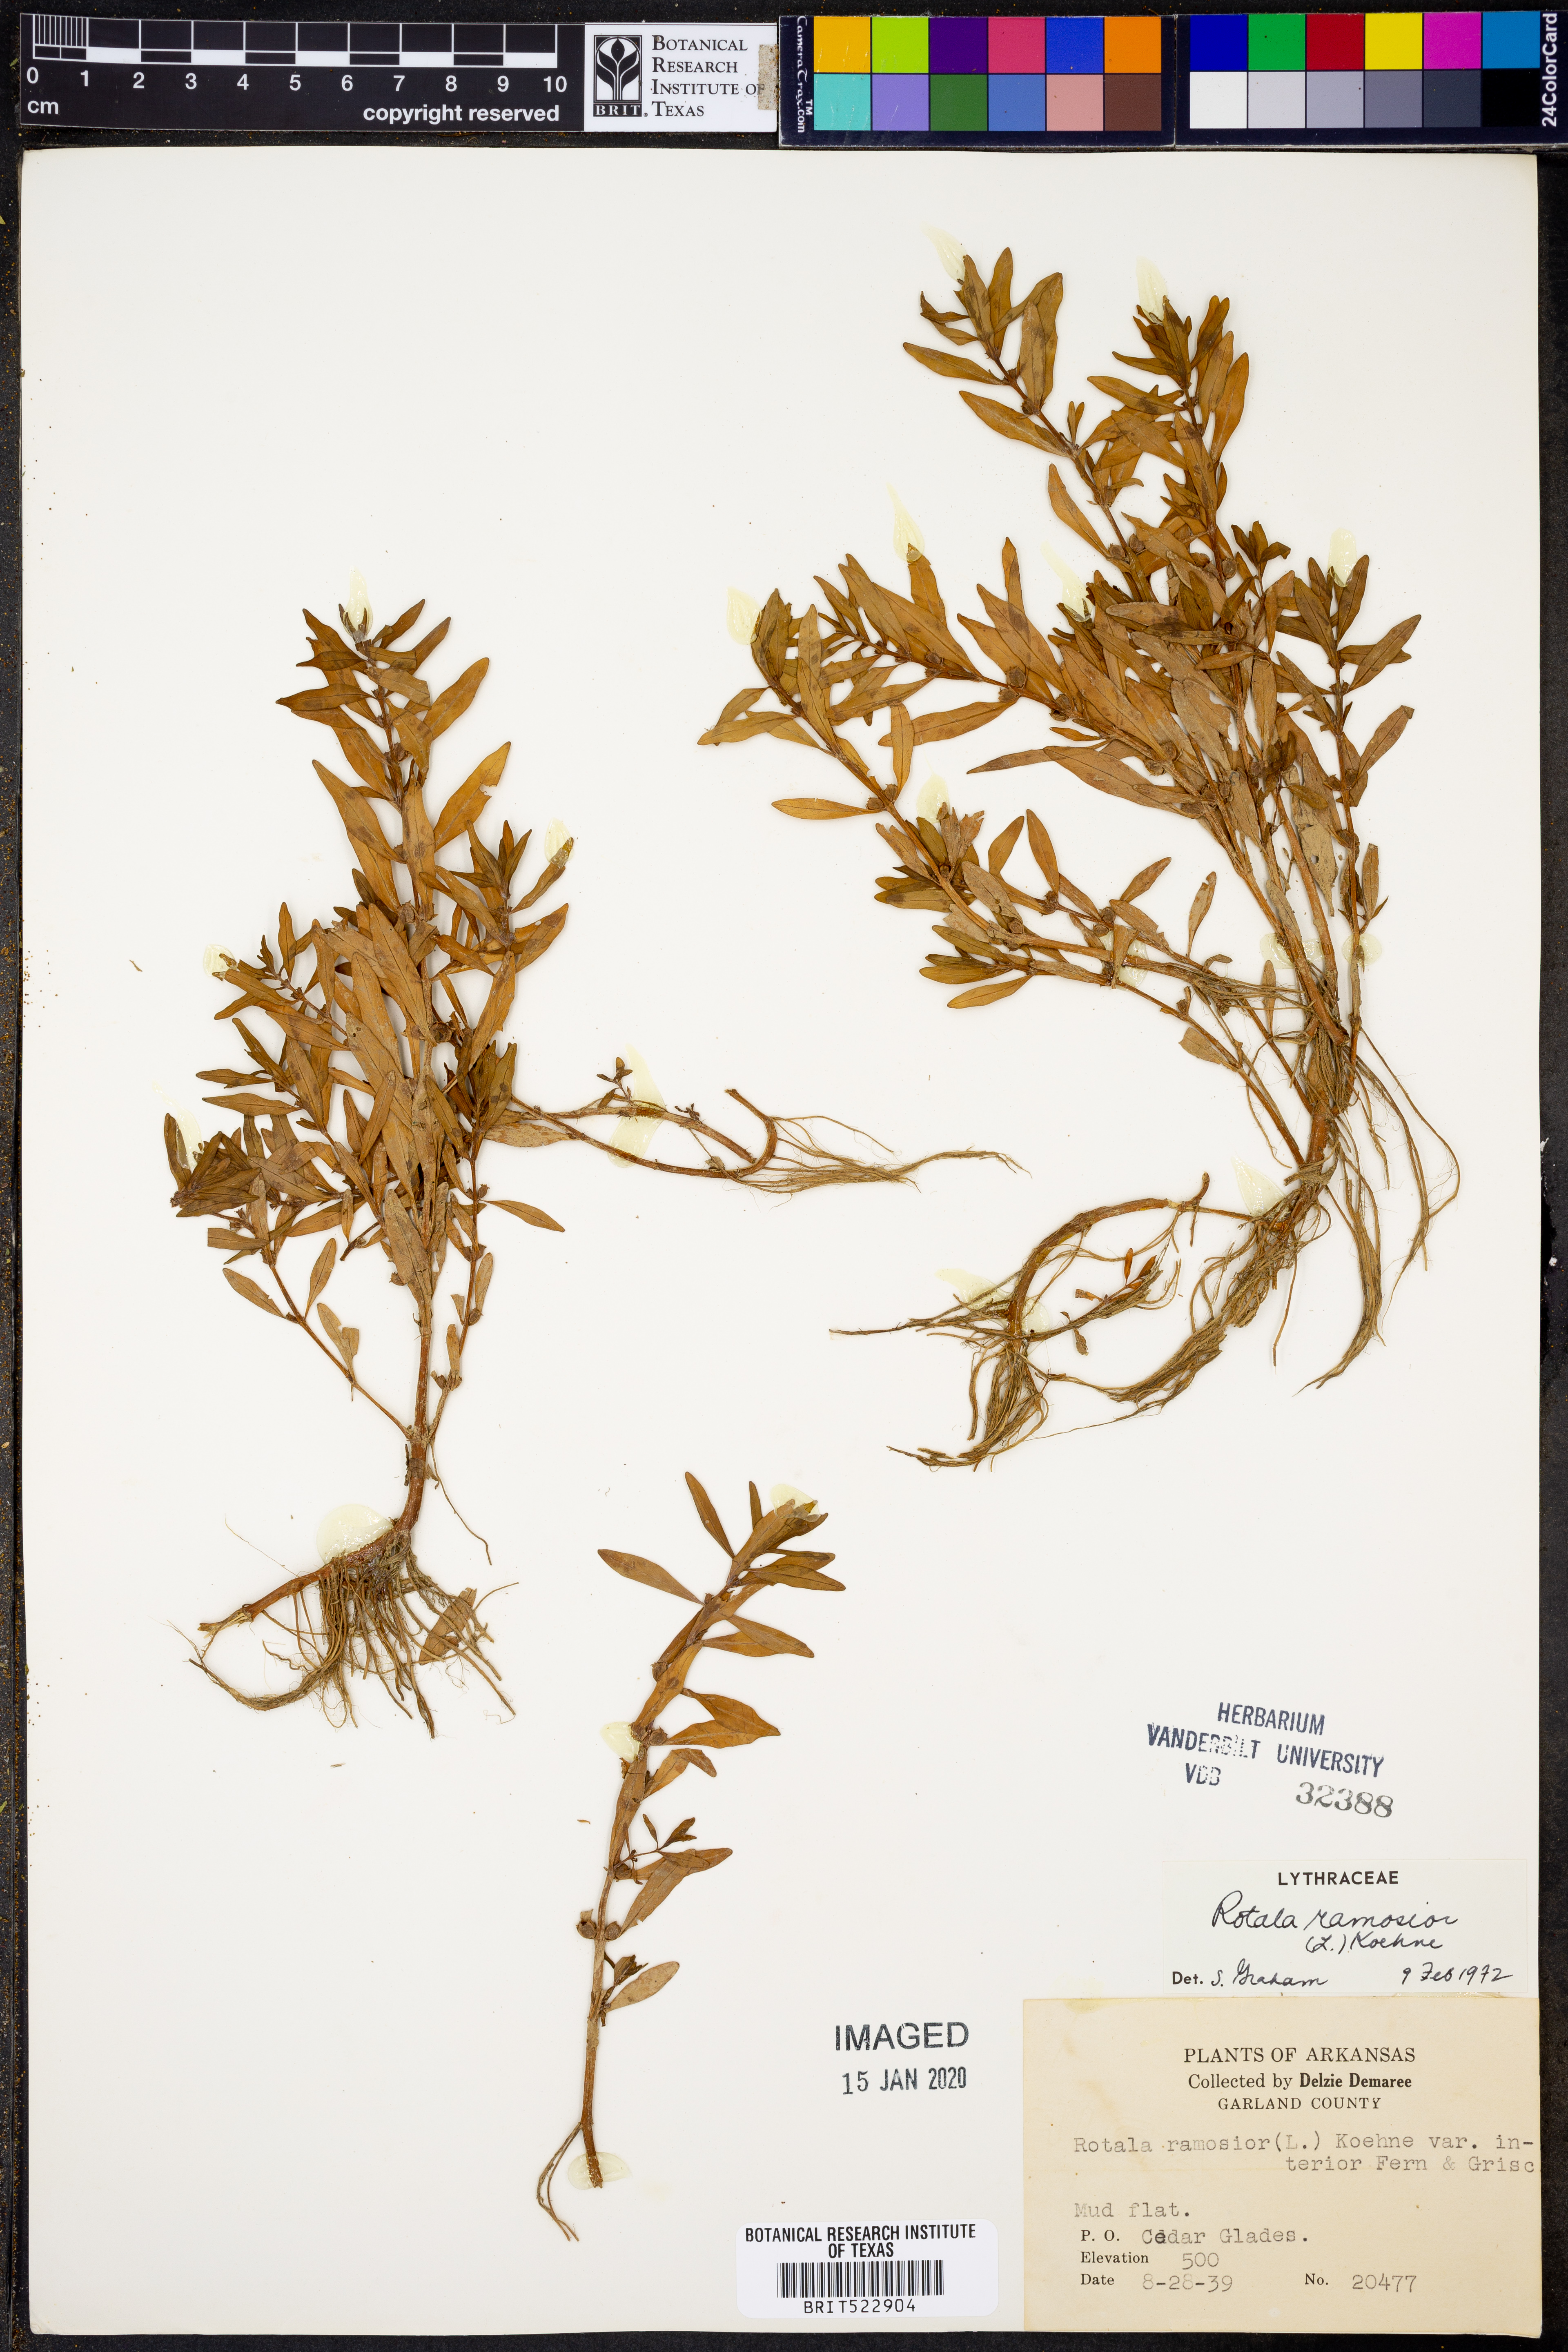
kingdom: Plantae
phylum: Tracheophyta
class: Magnoliopsida
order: Myrtales
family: Lythraceae
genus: Rotala
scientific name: Rotala ramosior
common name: Lowland rotala
